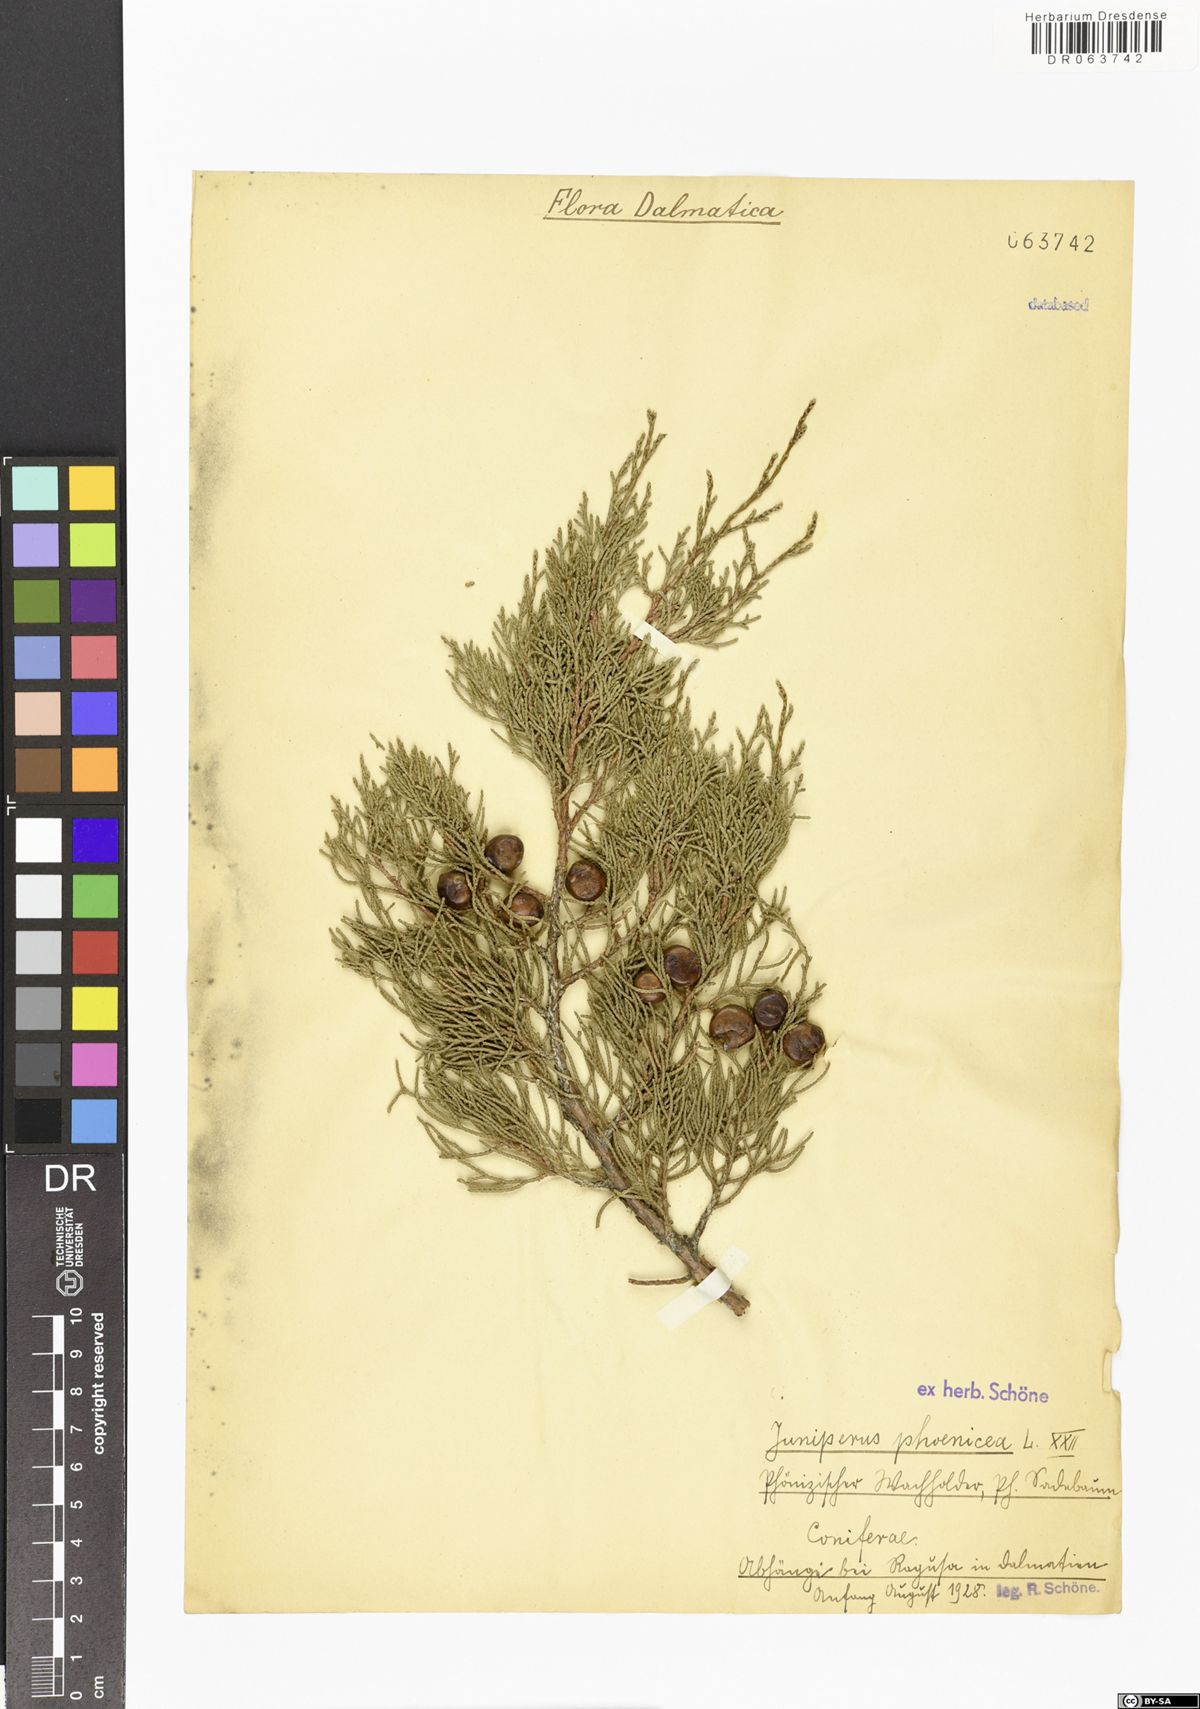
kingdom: Plantae
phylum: Tracheophyta
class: Pinopsida
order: Pinales
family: Cupressaceae
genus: Juniperus
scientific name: Juniperus phoenicea
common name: Phoenician juniper
